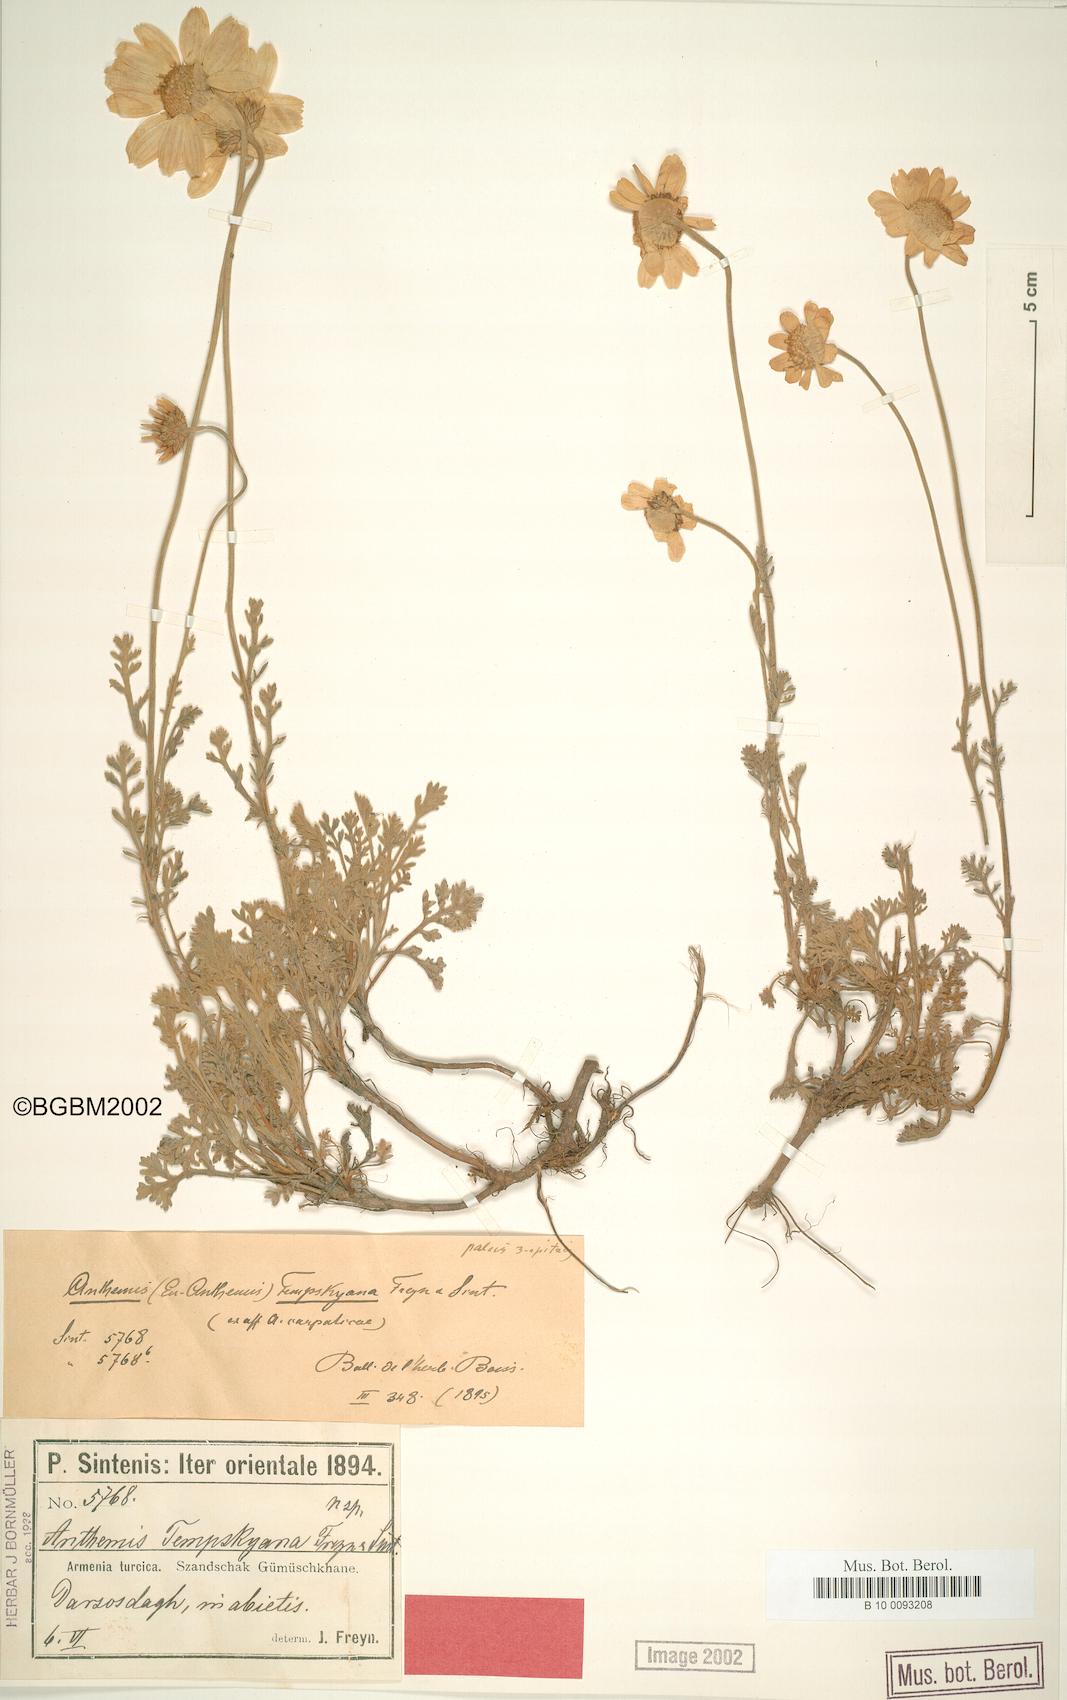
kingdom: Plantae
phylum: Tracheophyta
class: Magnoliopsida
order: Asterales
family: Asteraceae
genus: Anthemis
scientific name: Anthemis cretica
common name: Mountain dog-daisy
